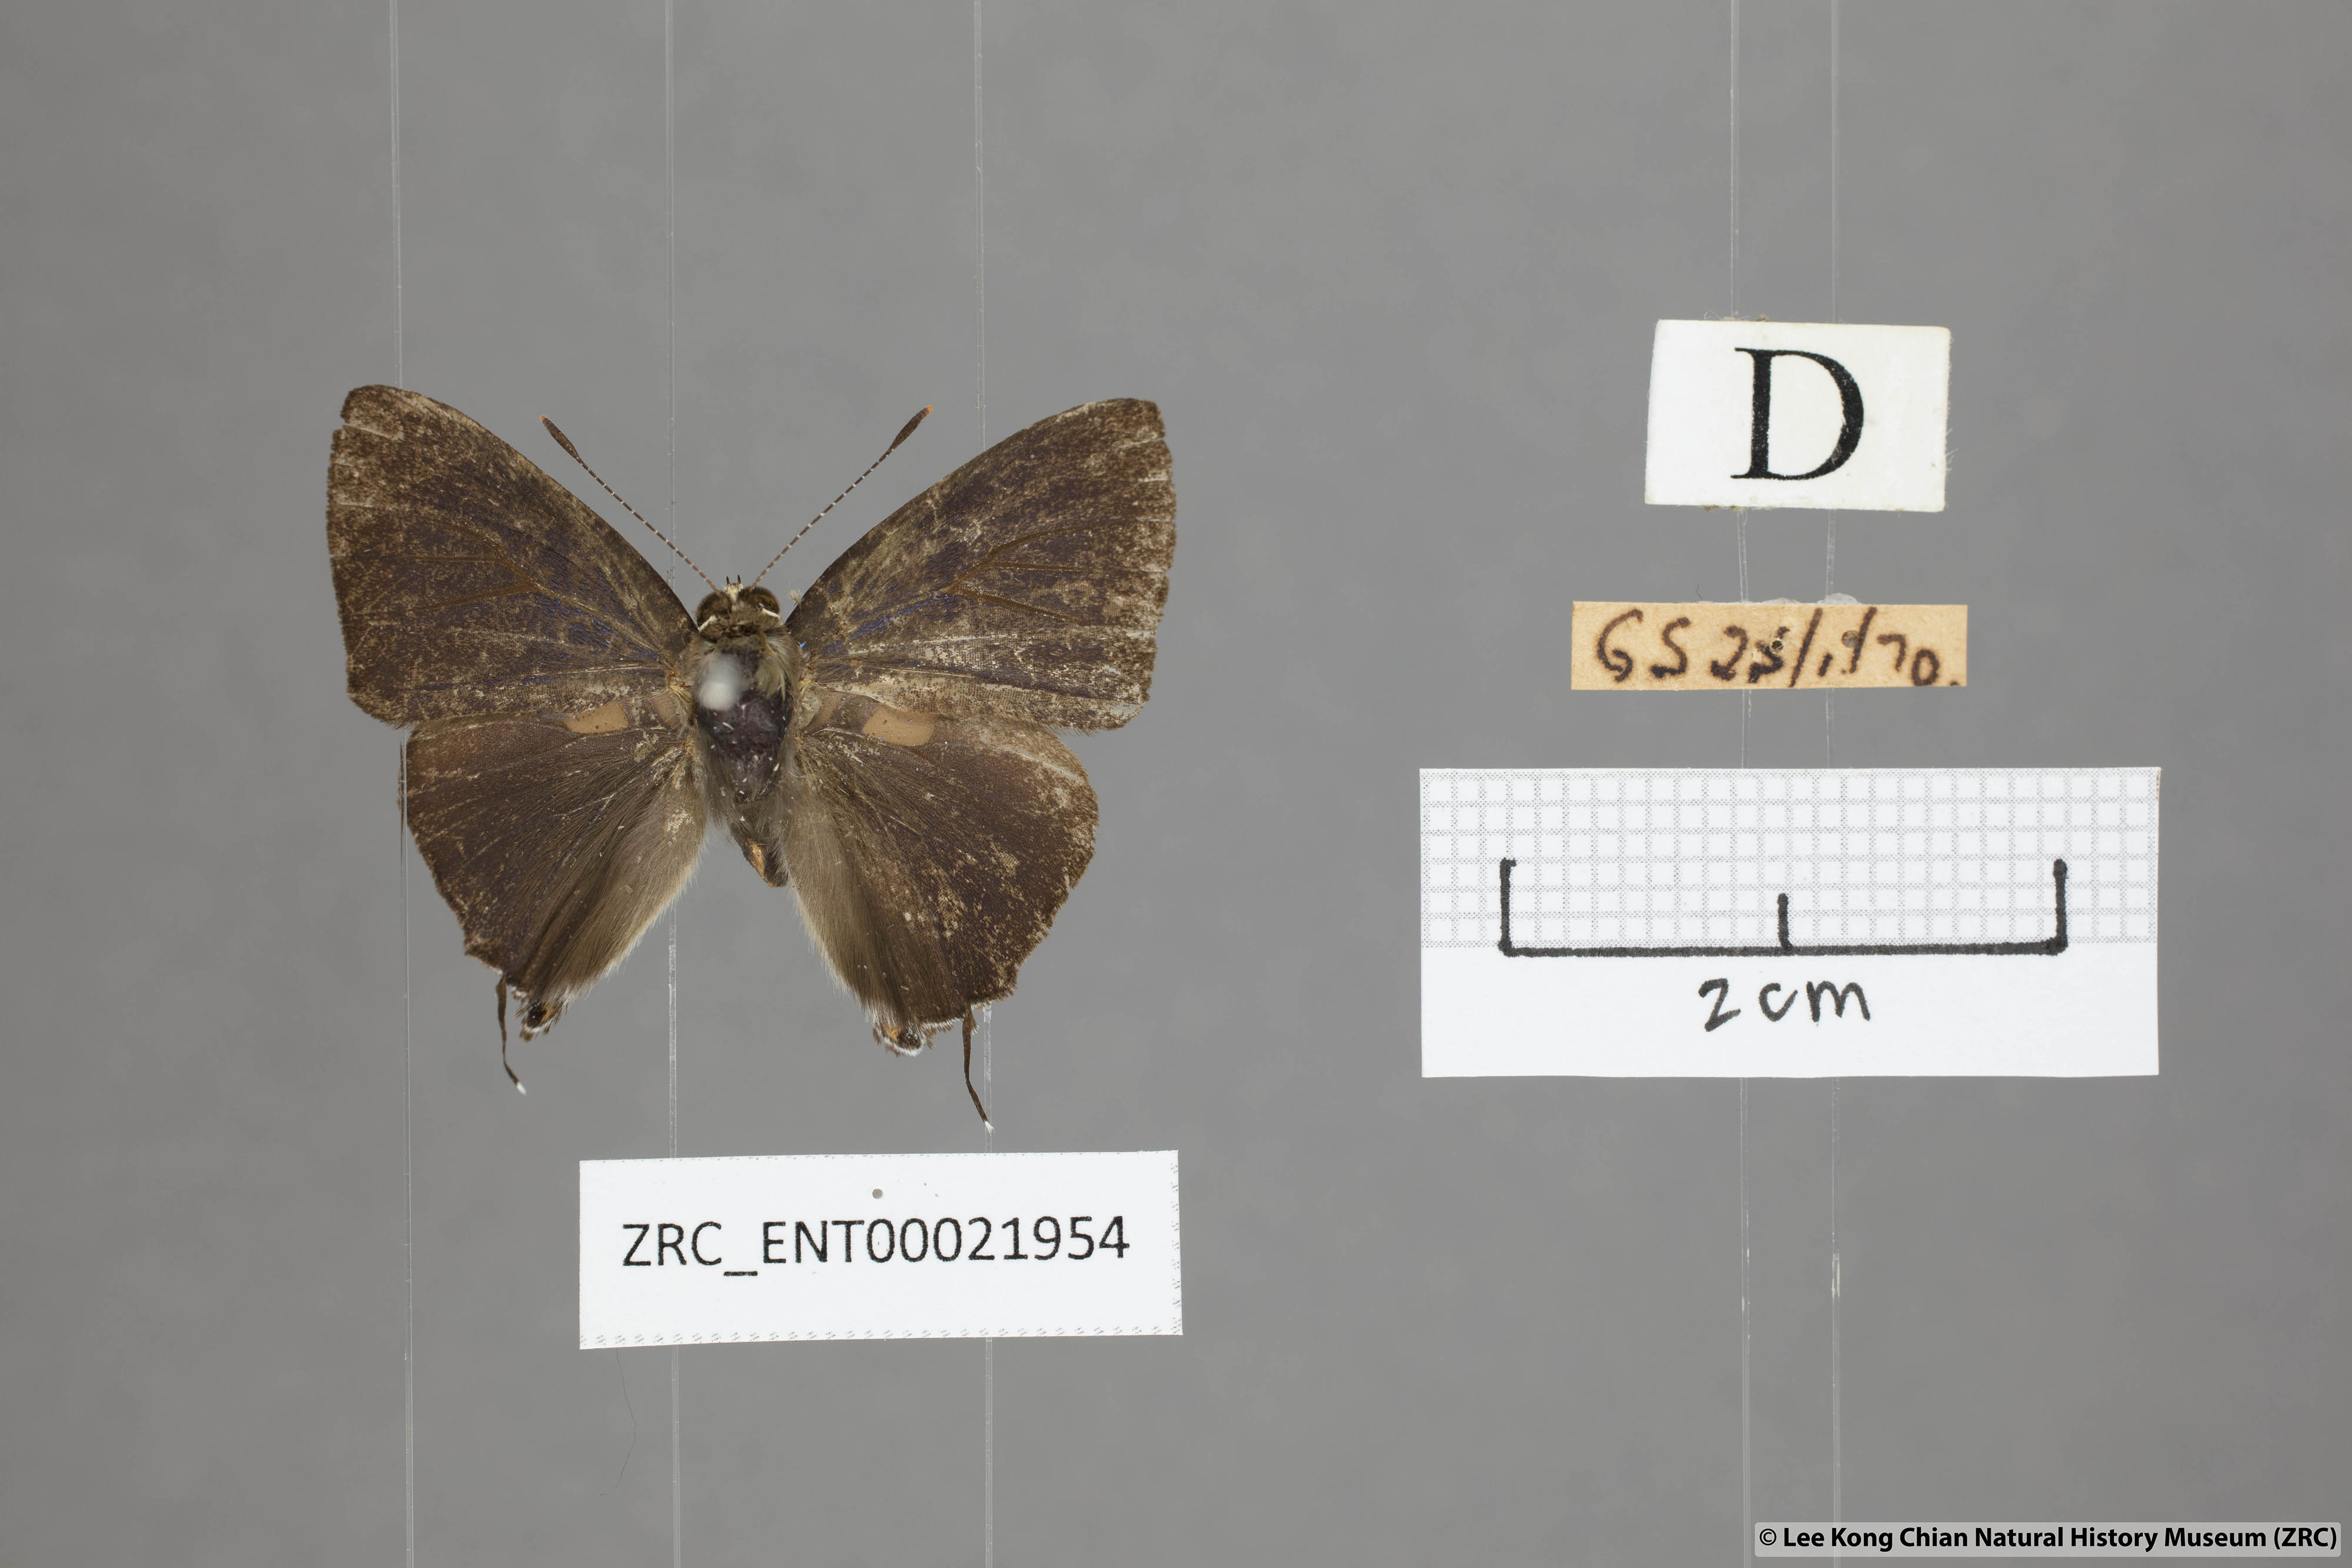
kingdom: Animalia
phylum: Arthropoda
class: Insecta
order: Lepidoptera
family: Lycaenidae
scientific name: Lycaenidae
